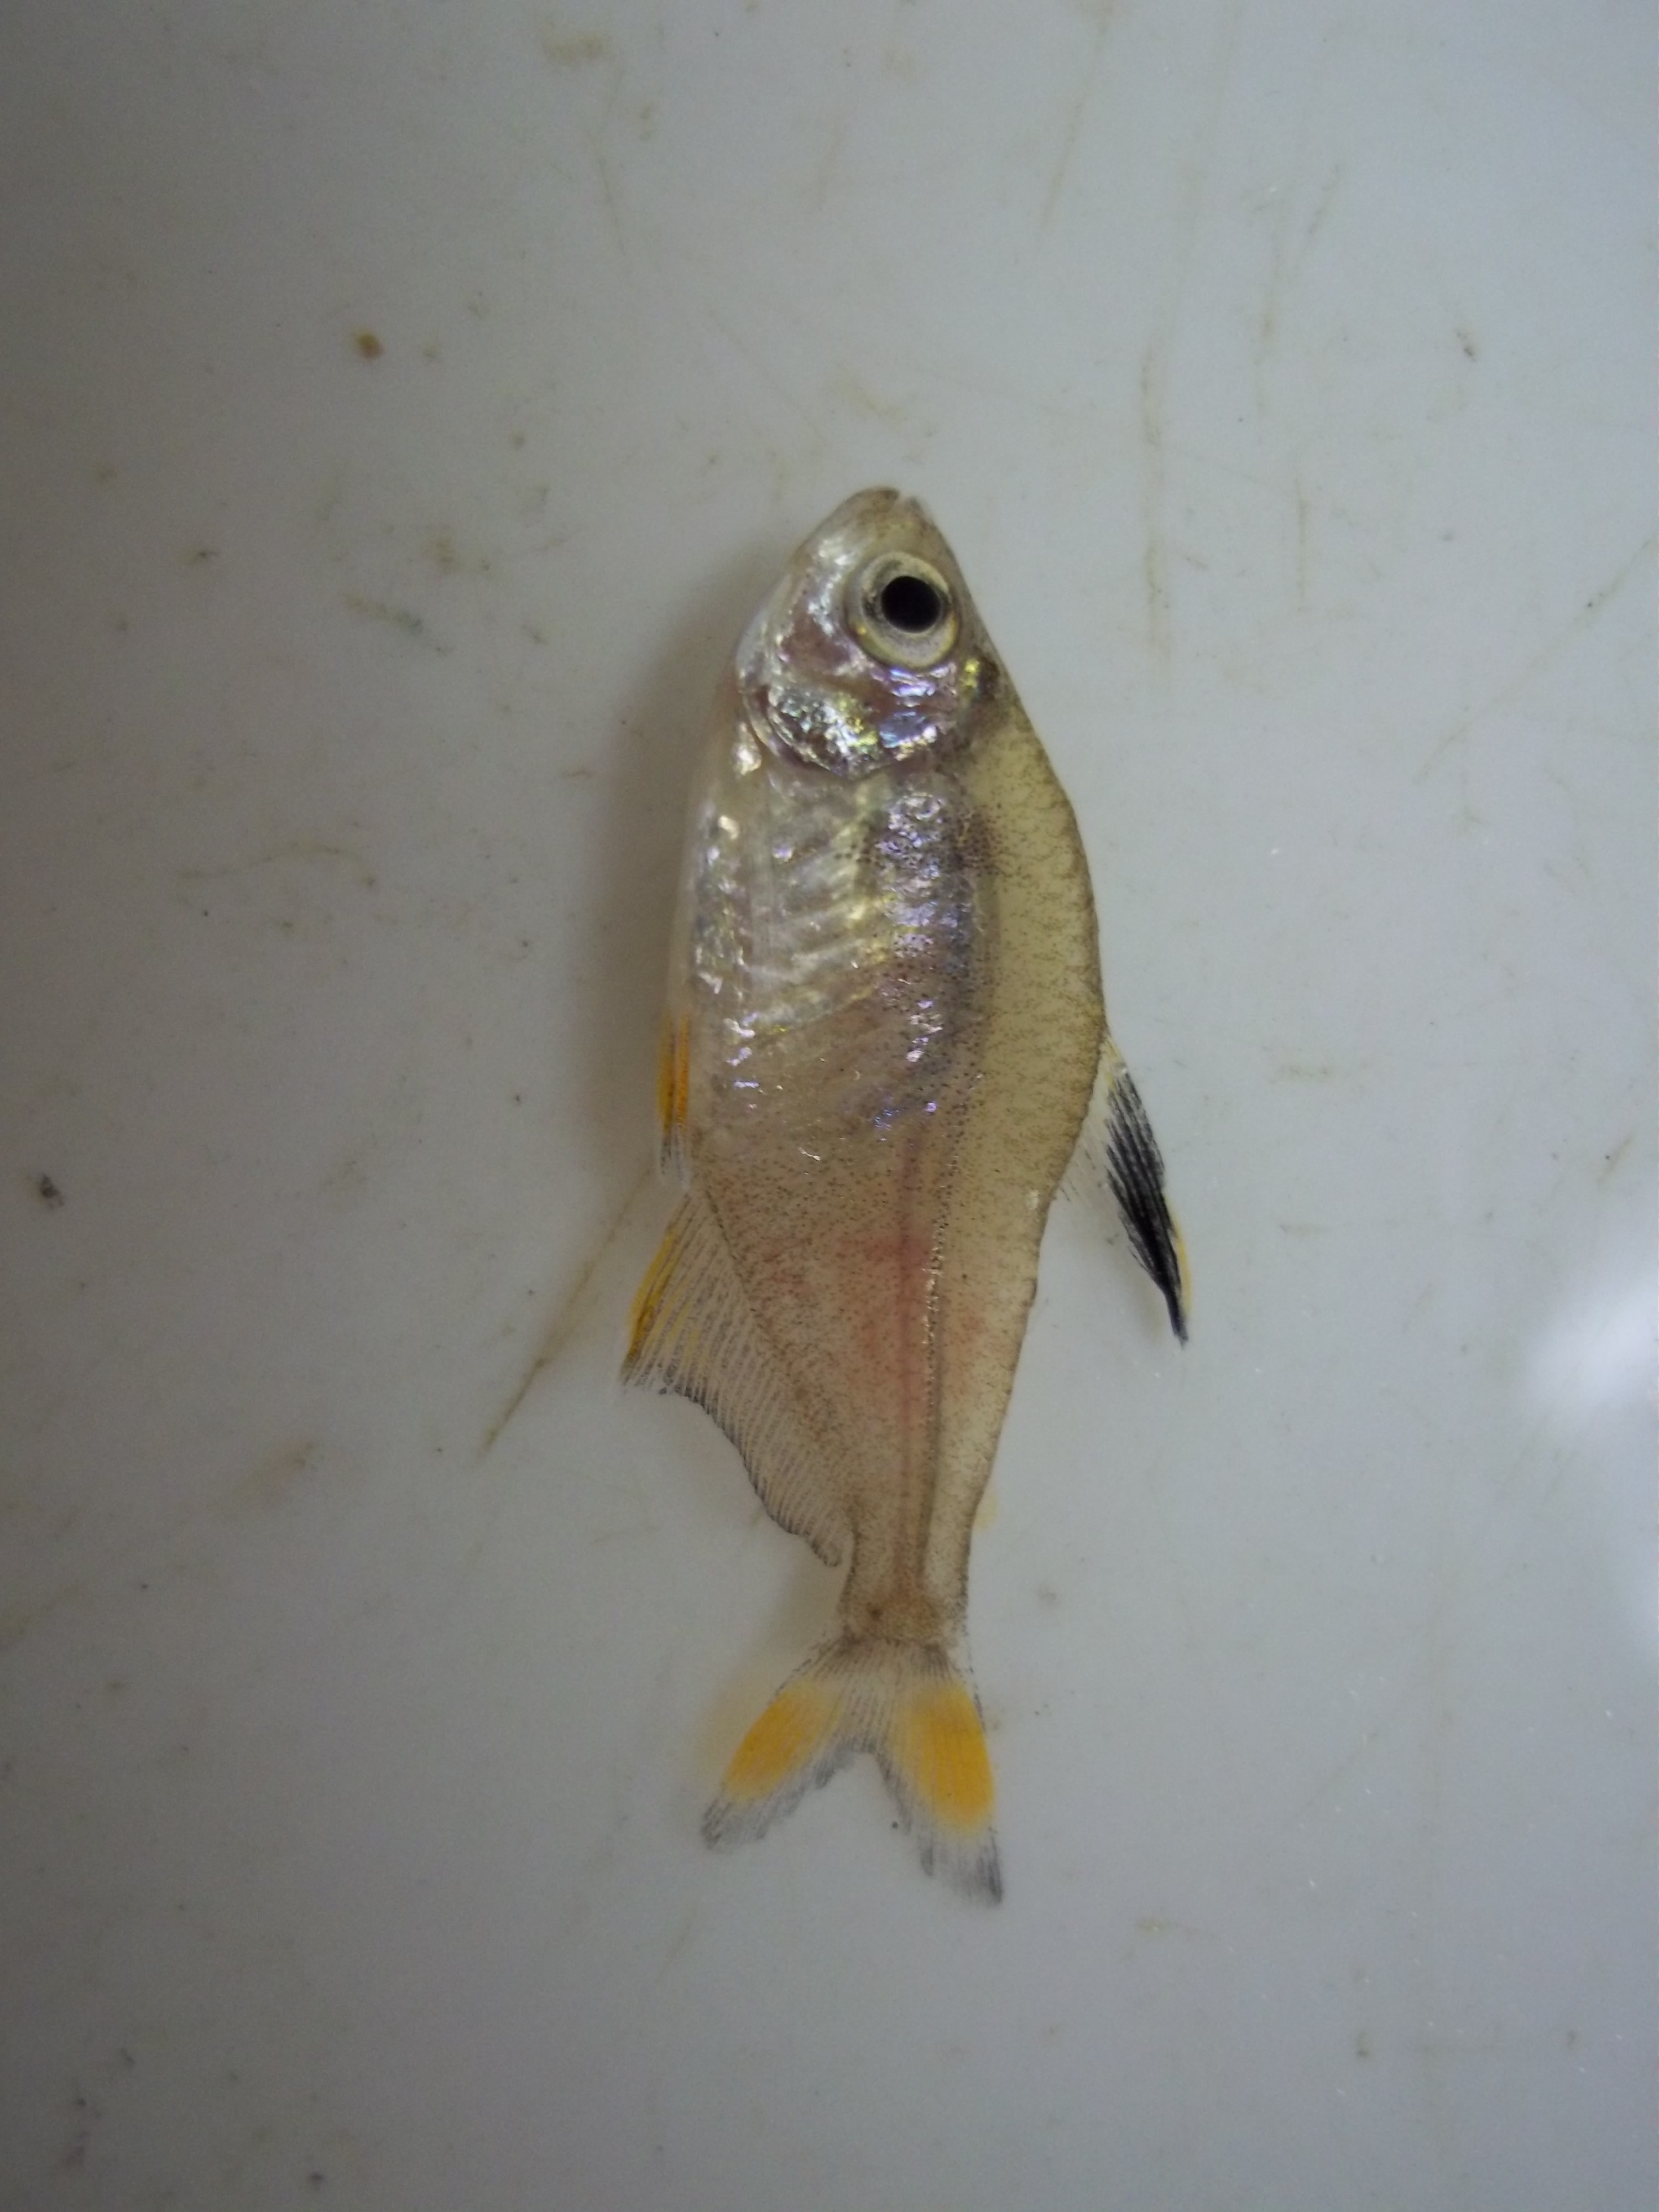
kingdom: Animalia
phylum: Chordata
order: Characiformes
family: Characidae
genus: Hyphessobrycon
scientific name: Hyphessobrycon rosaceus
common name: Black-flag tetra
